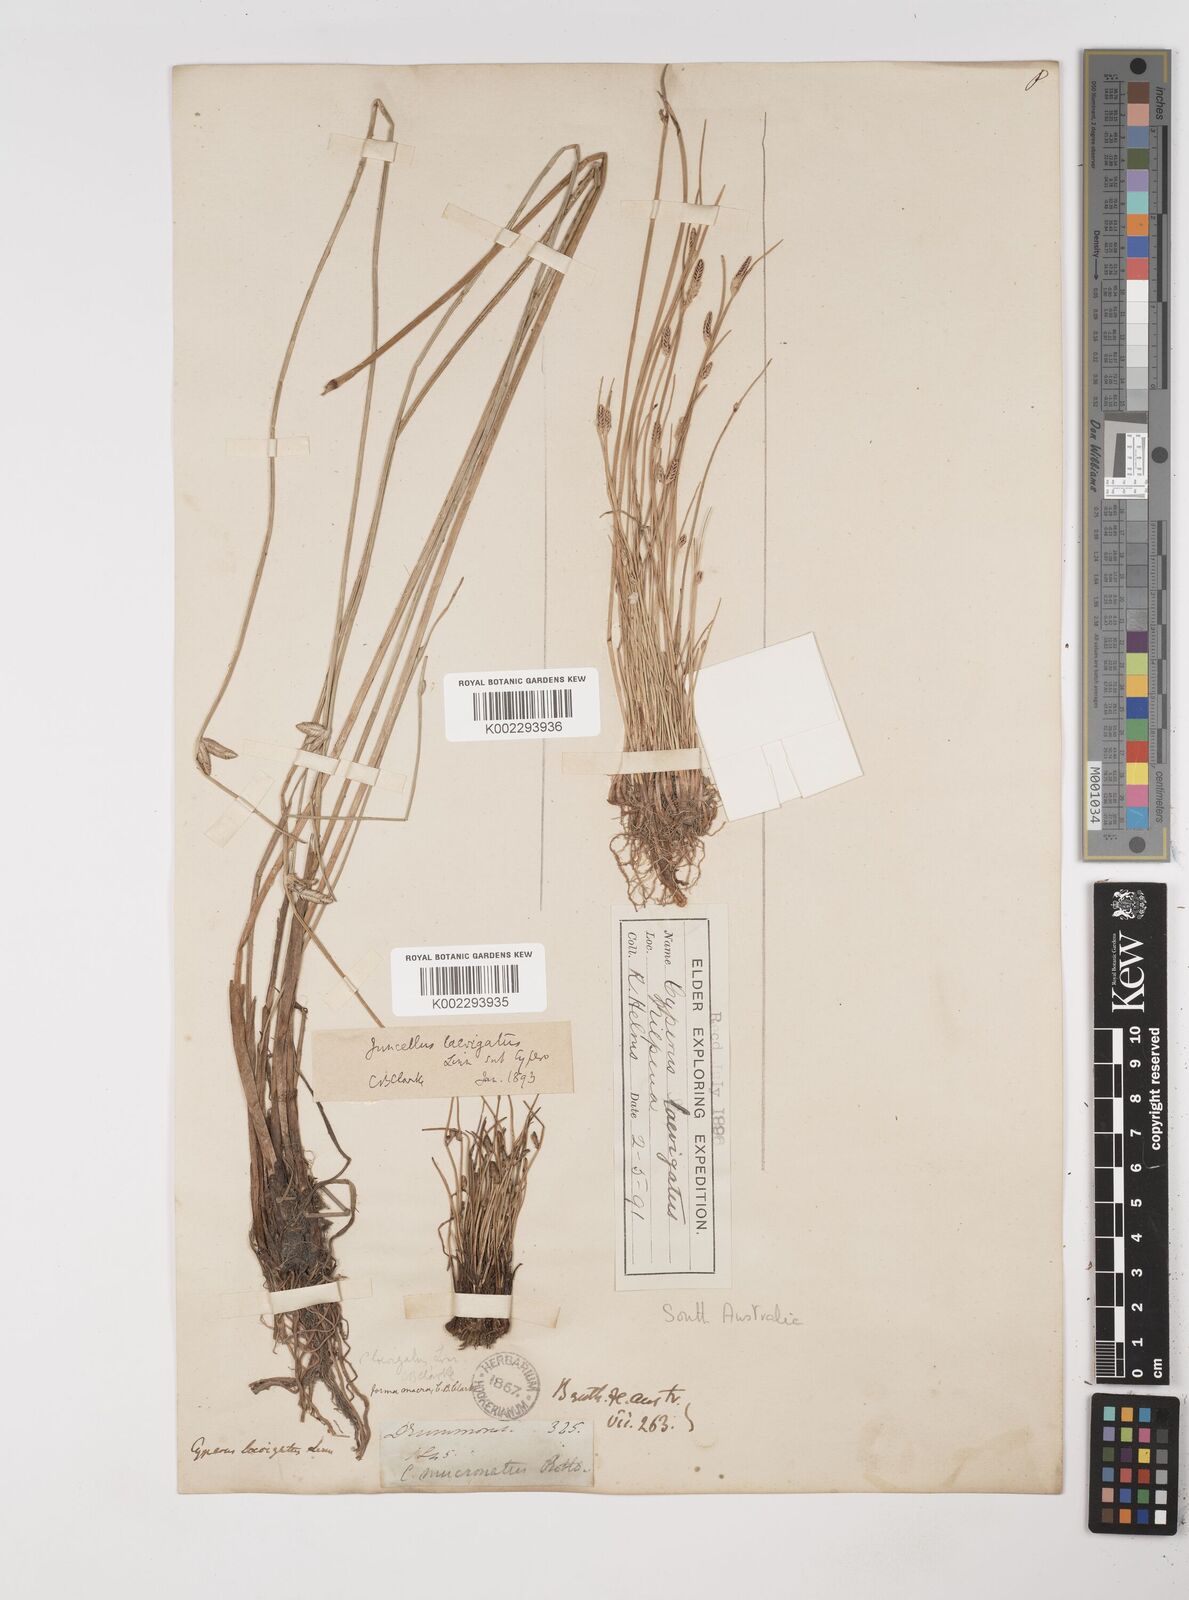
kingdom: Plantae
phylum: Tracheophyta
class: Liliopsida
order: Poales
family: Cyperaceae
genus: Cyperus
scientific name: Cyperus laevigatus
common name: Smooth flat sedge
